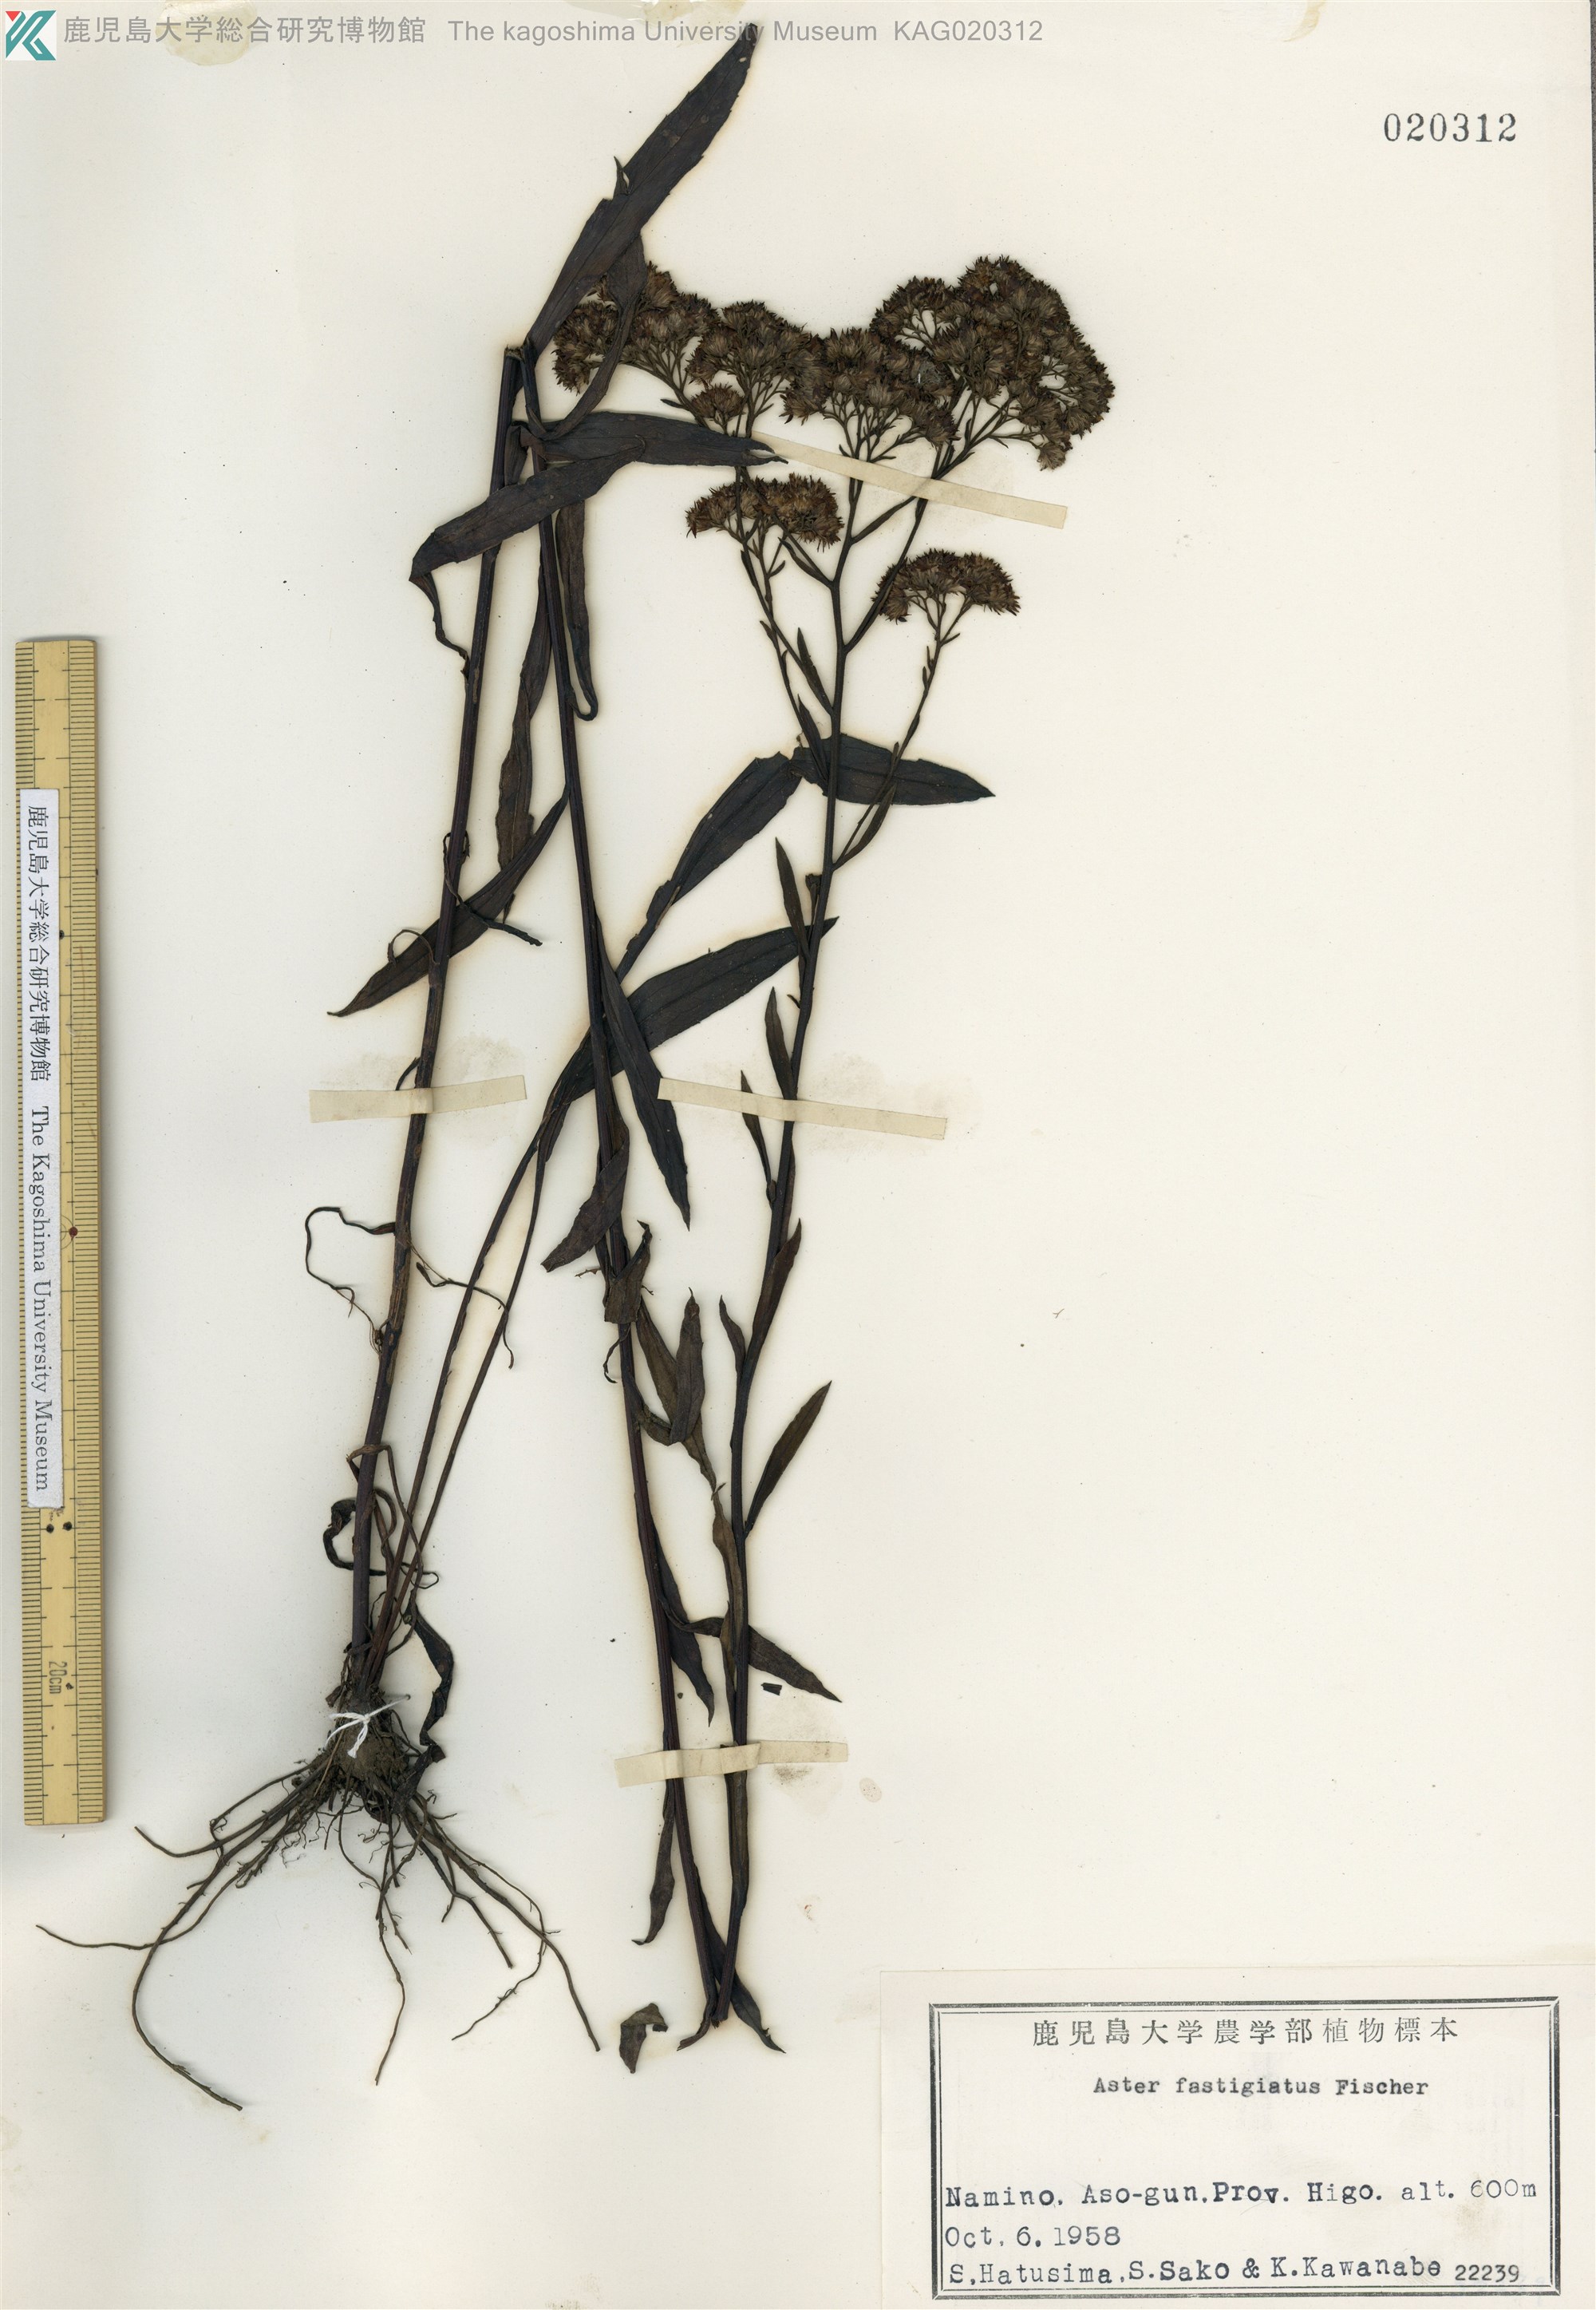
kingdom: Plantae
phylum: Tracheophyta
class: Magnoliopsida
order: Asterales
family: Asteraceae
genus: Turczaninovia
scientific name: Turczaninovia fastigiata
